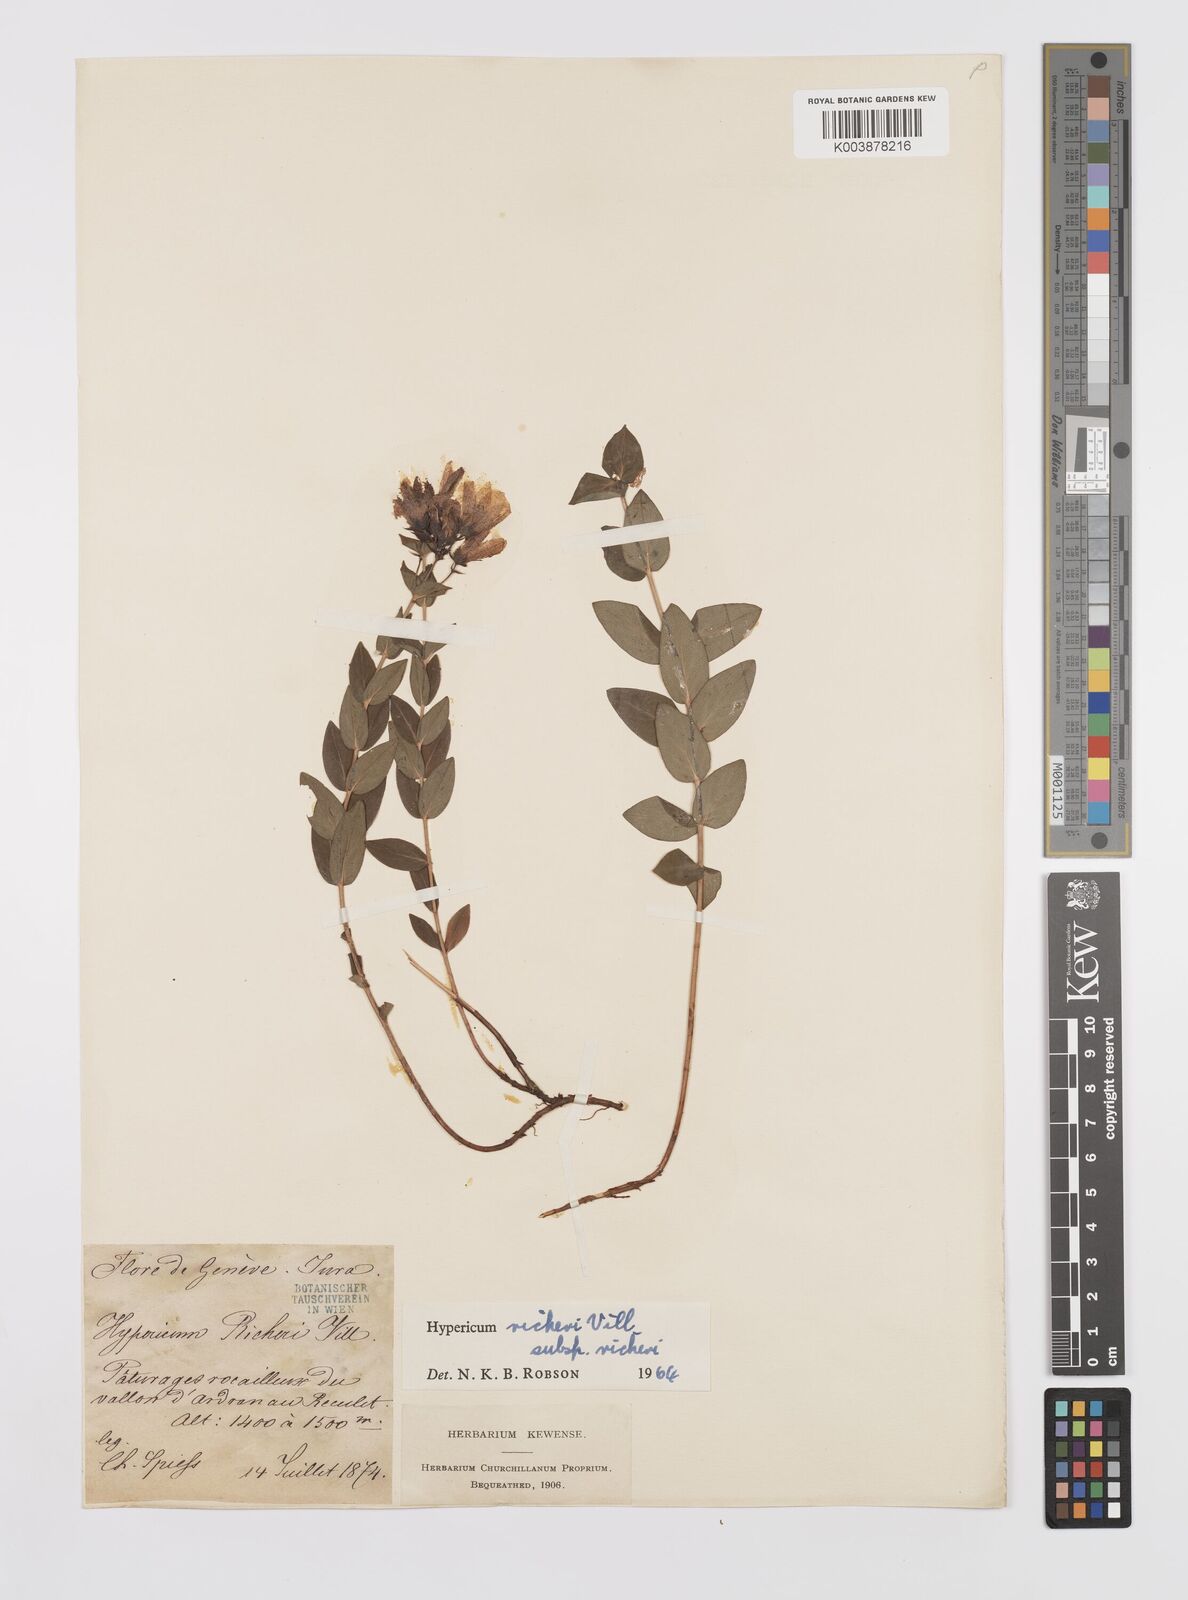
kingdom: Plantae
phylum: Tracheophyta
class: Magnoliopsida
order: Malpighiales
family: Hypericaceae
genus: Hypericum
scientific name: Hypericum richeri
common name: Alpine st john's-wort
